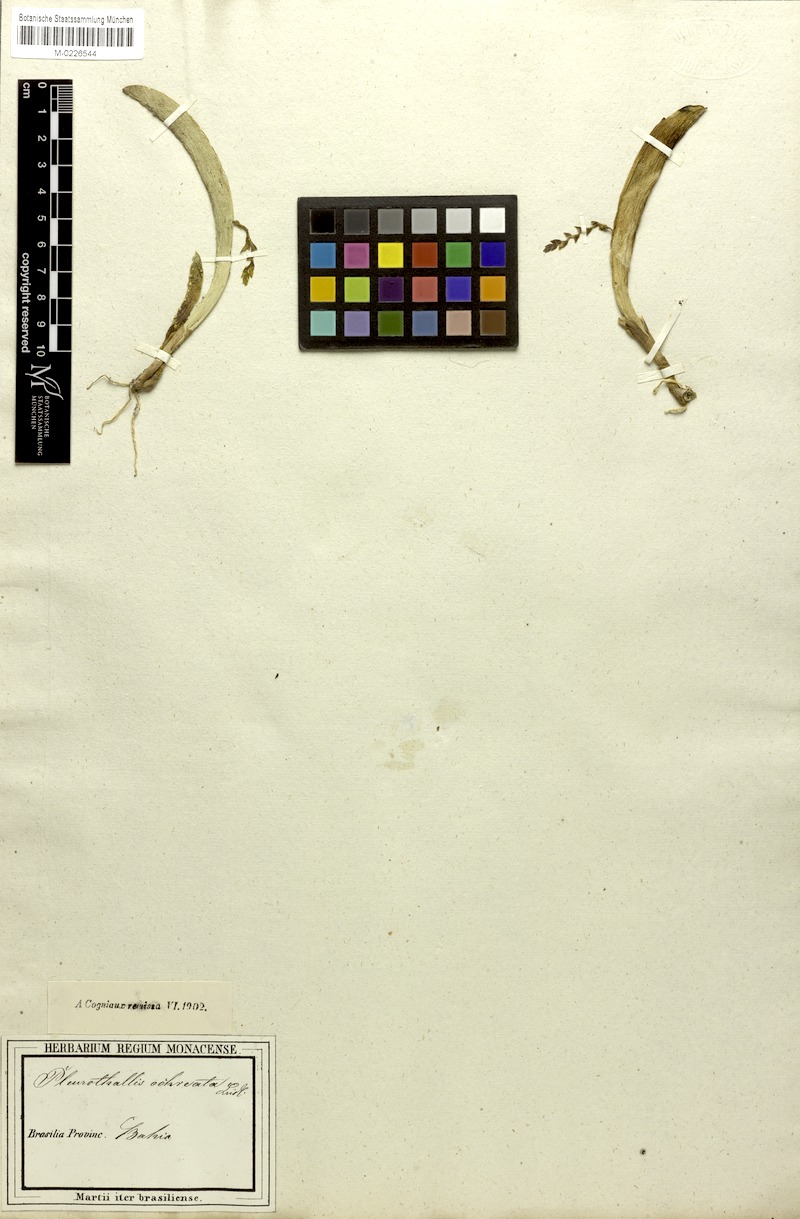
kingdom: Plantae
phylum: Tracheophyta
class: Liliopsida
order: Asparagales
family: Orchidaceae
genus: Acianthera
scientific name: Acianthera ochreata
